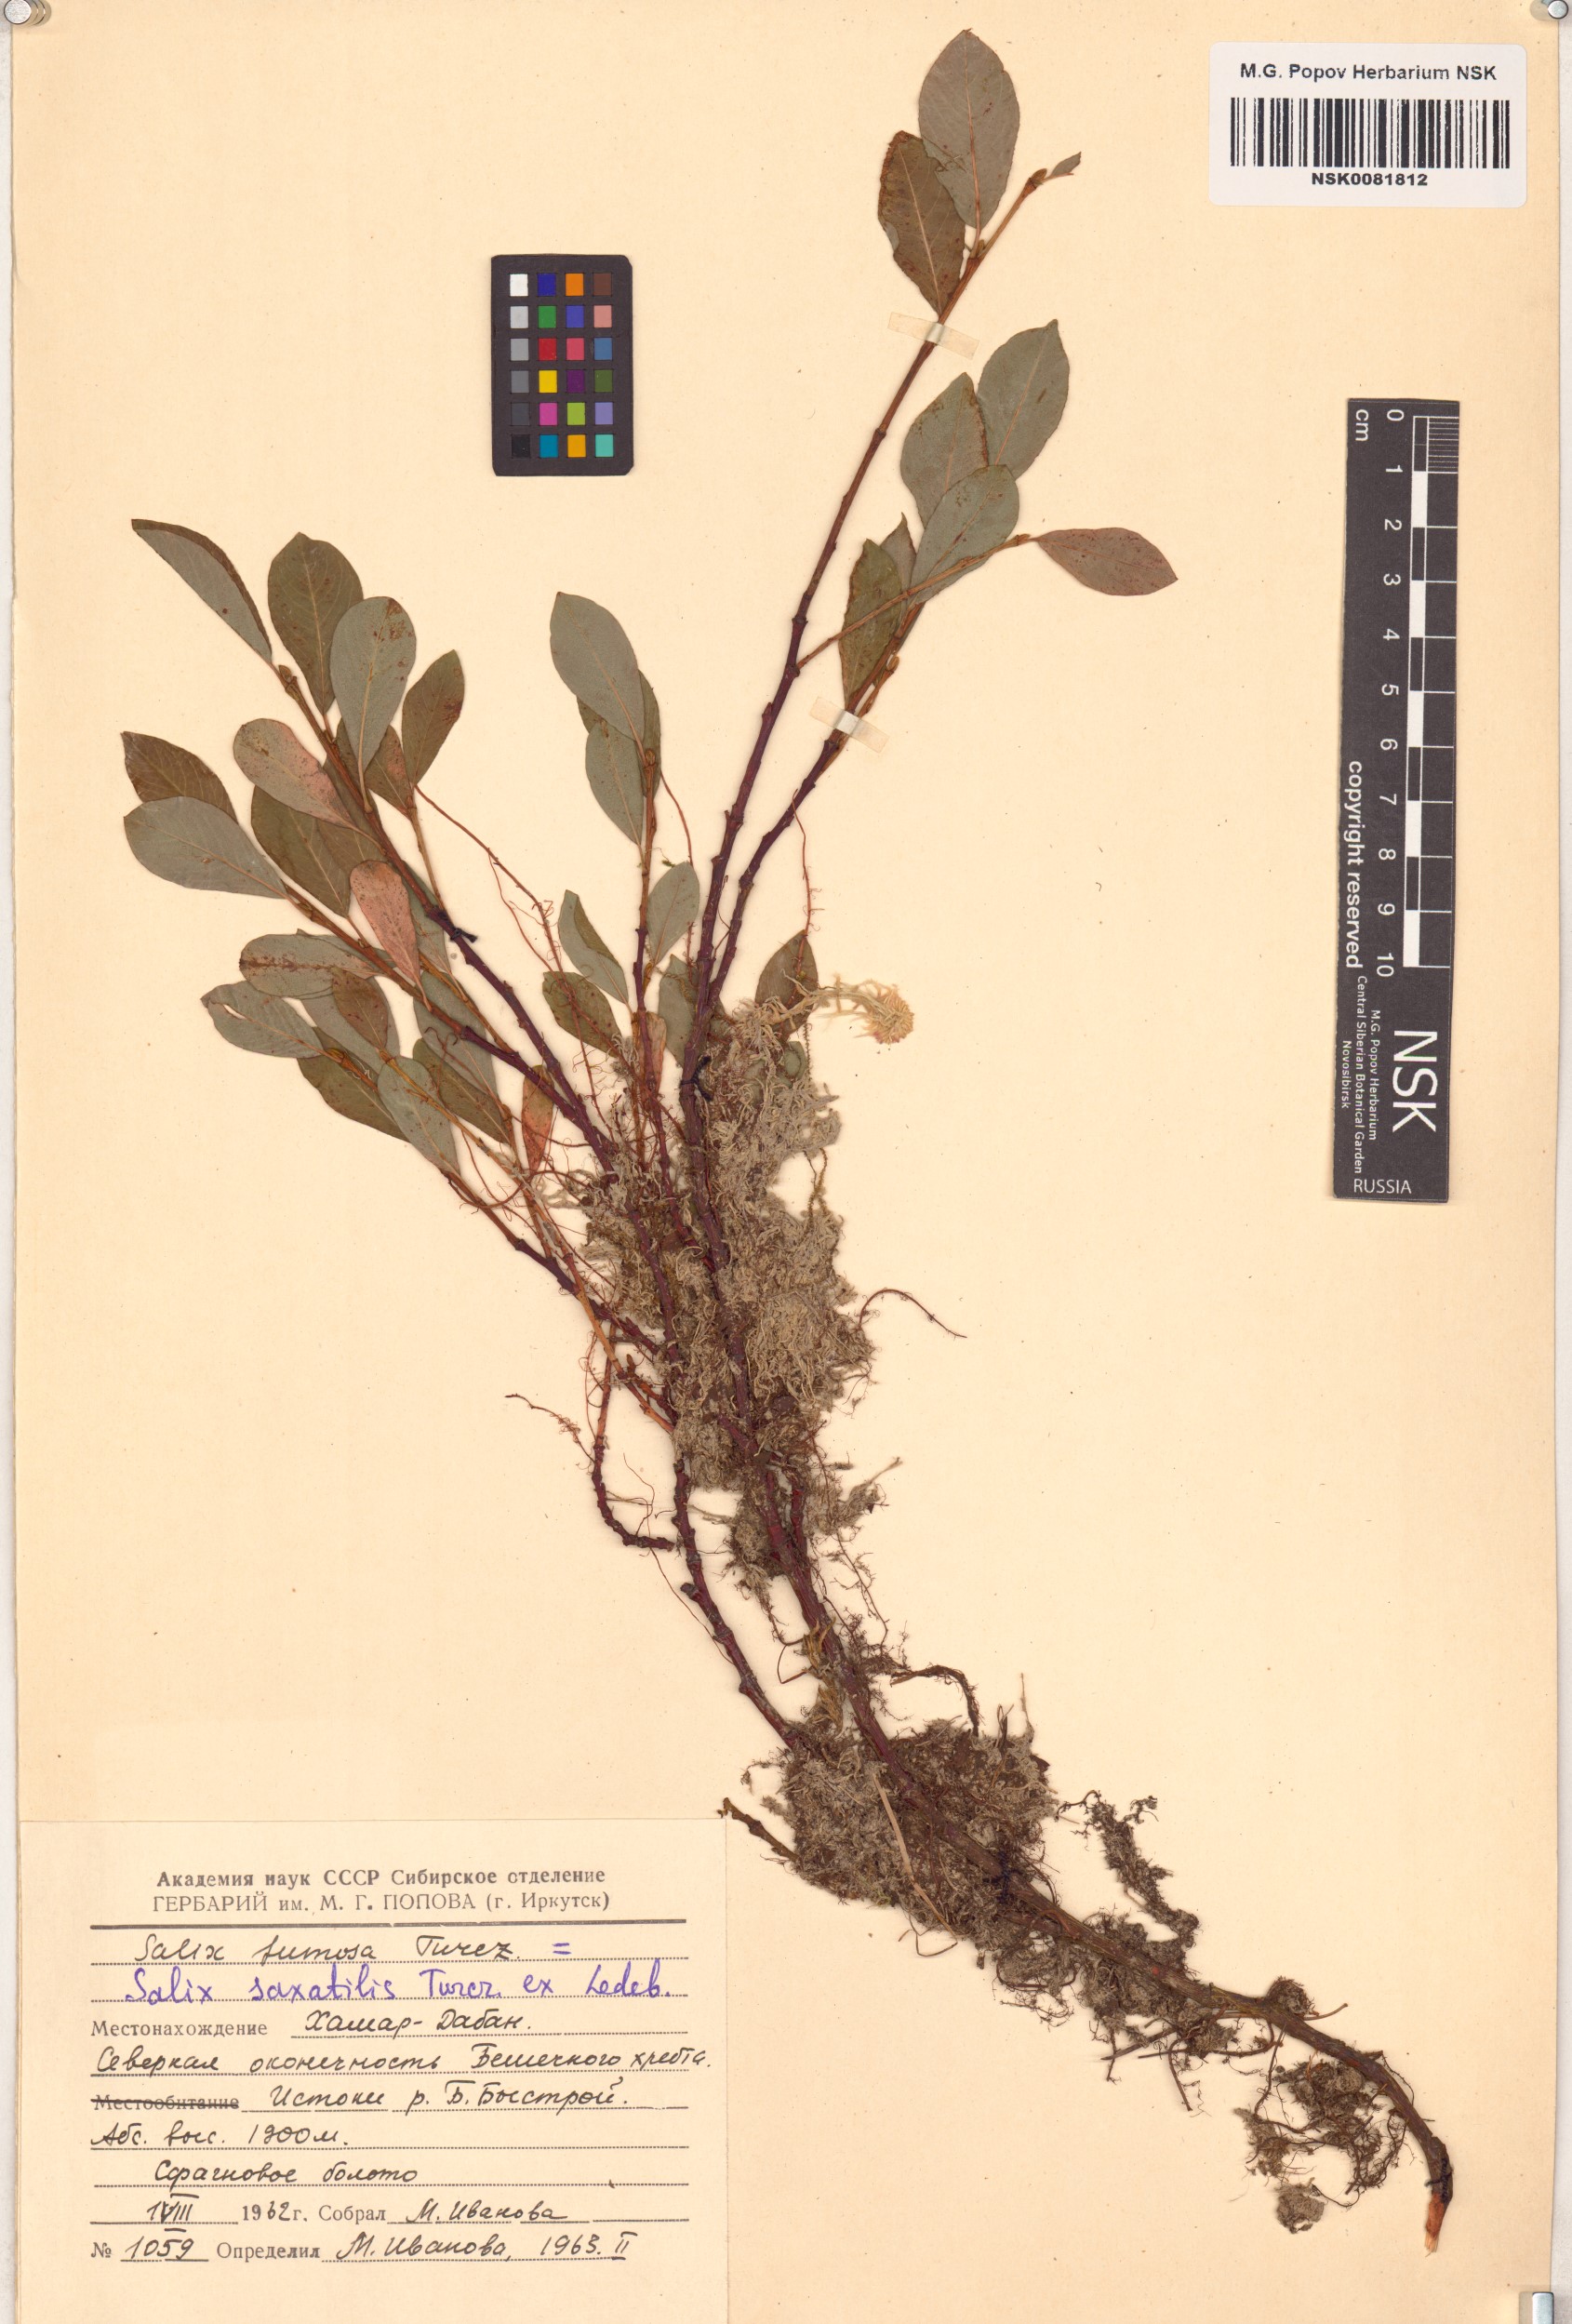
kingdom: Plantae
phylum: Tracheophyta
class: Magnoliopsida
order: Malpighiales
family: Salicaceae
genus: Salix
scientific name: Salix saxatilis
